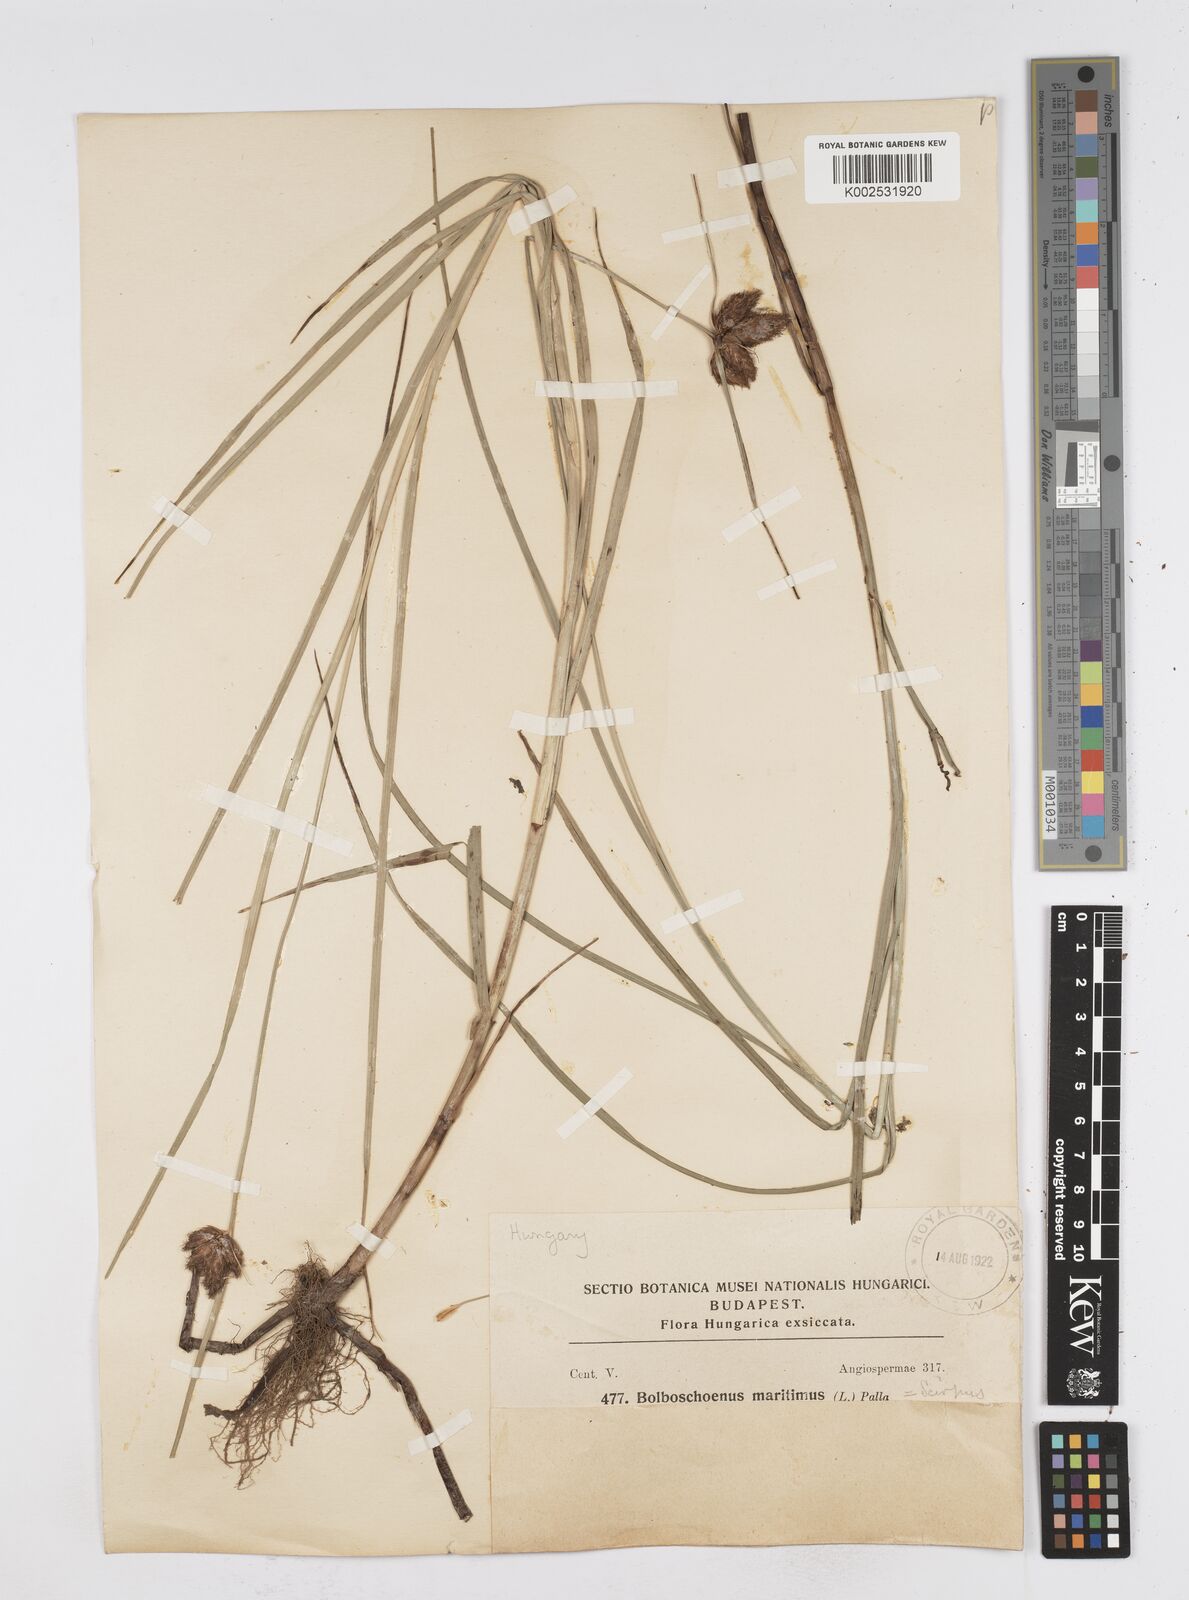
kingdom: Plantae
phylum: Tracheophyta
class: Liliopsida
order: Poales
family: Cyperaceae
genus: Bolboschoenus
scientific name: Bolboschoenus maritimus
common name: Sea club-rush
